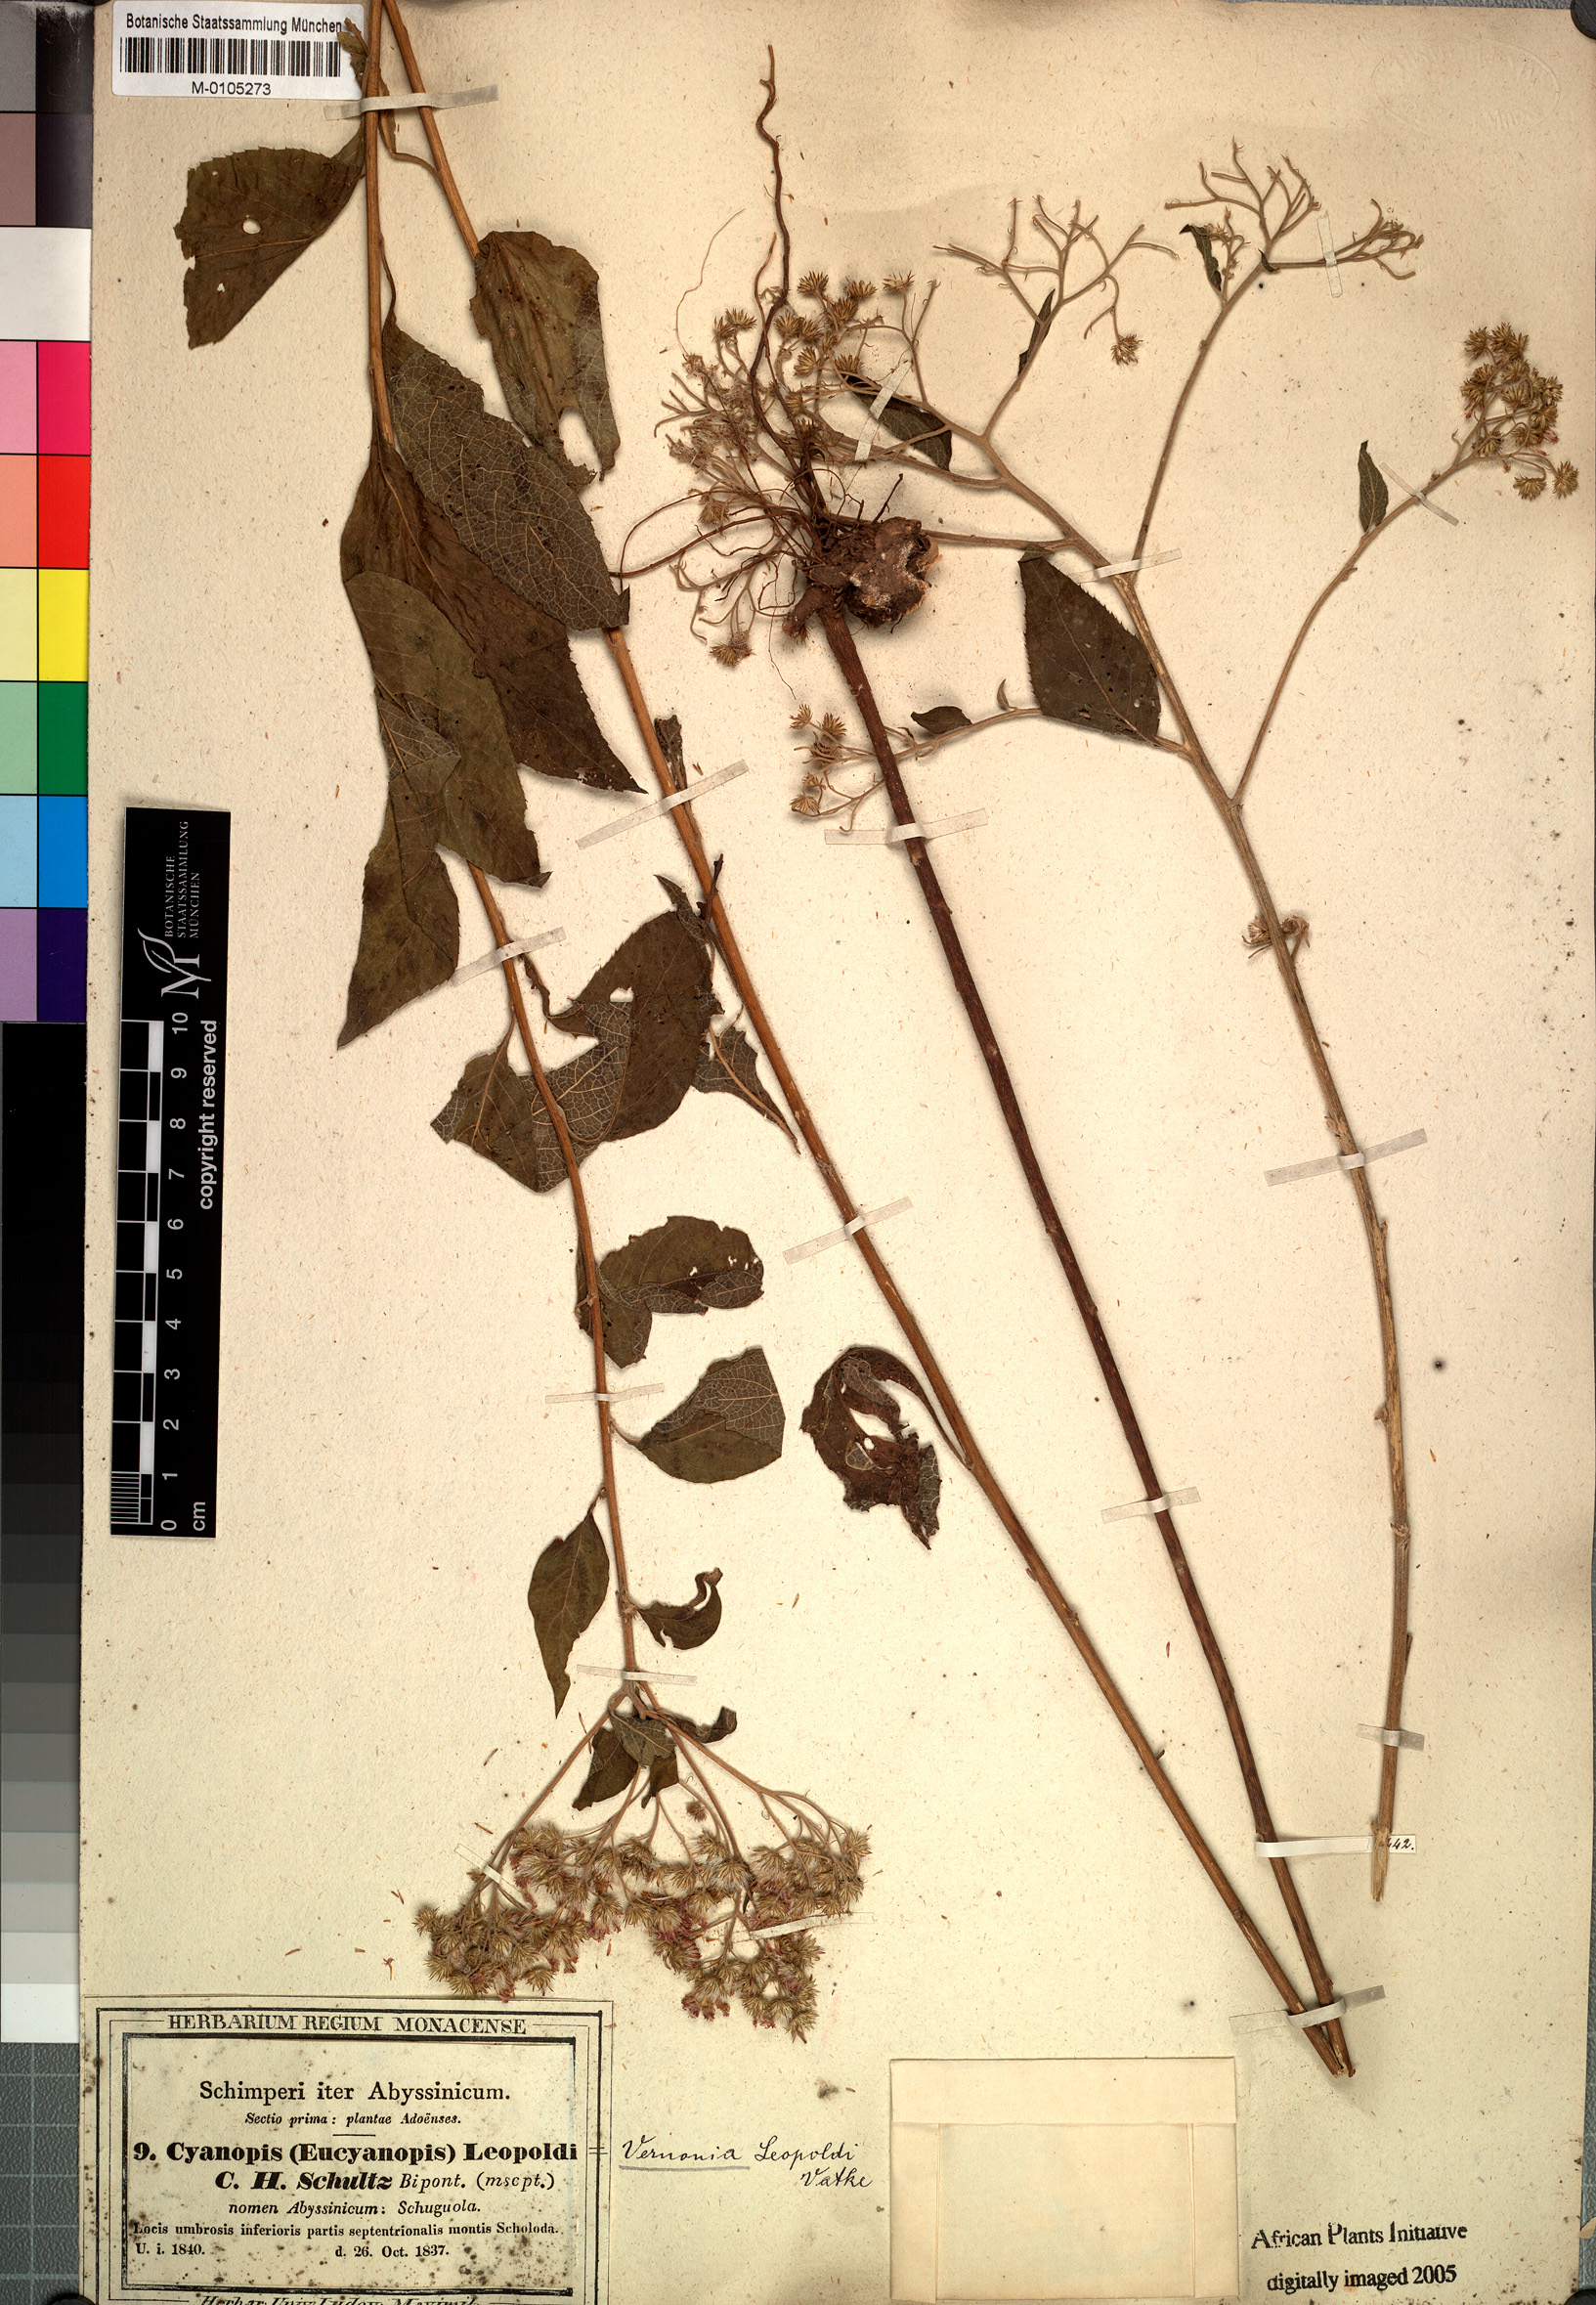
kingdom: Plantae
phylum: Tracheophyta
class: Magnoliopsida
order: Asterales
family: Asteraceae
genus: Orbivestus
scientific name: Orbivestus leopoldii
